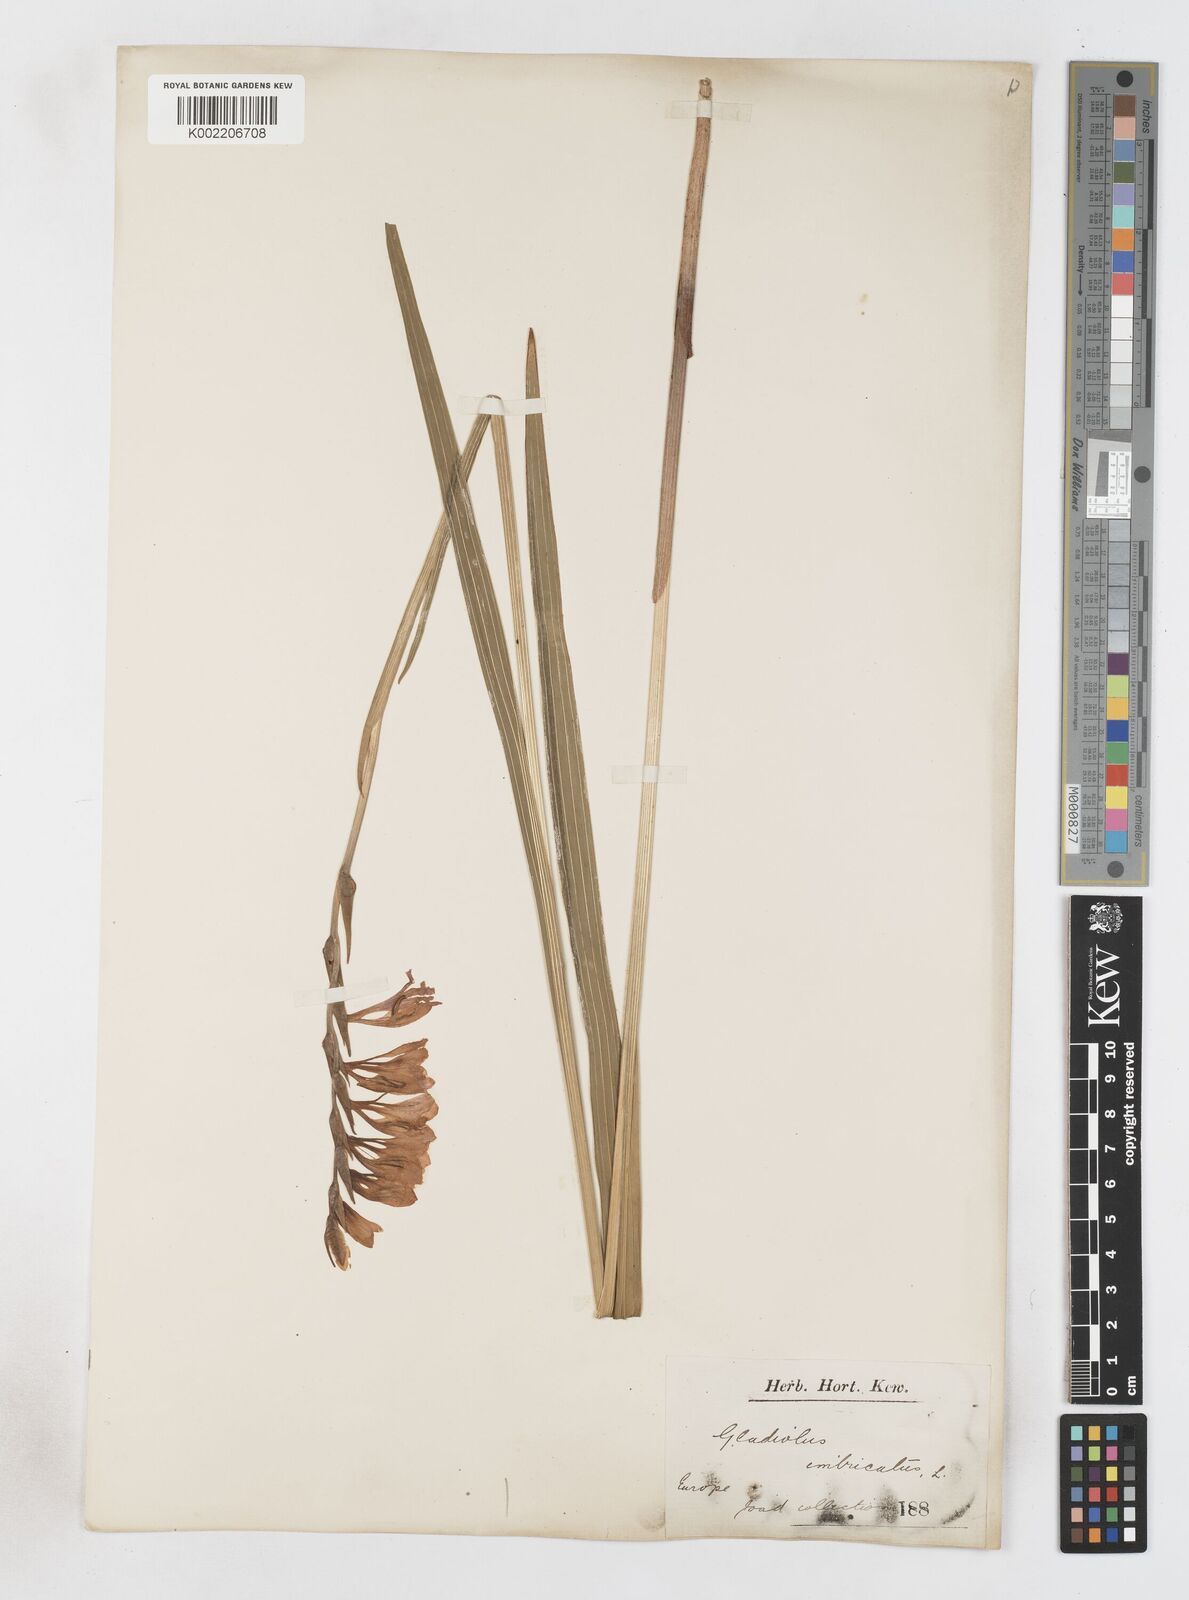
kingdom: Plantae
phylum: Tracheophyta
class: Liliopsida
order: Asparagales
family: Iridaceae
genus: Gladiolus
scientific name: Gladiolus imbricatus
